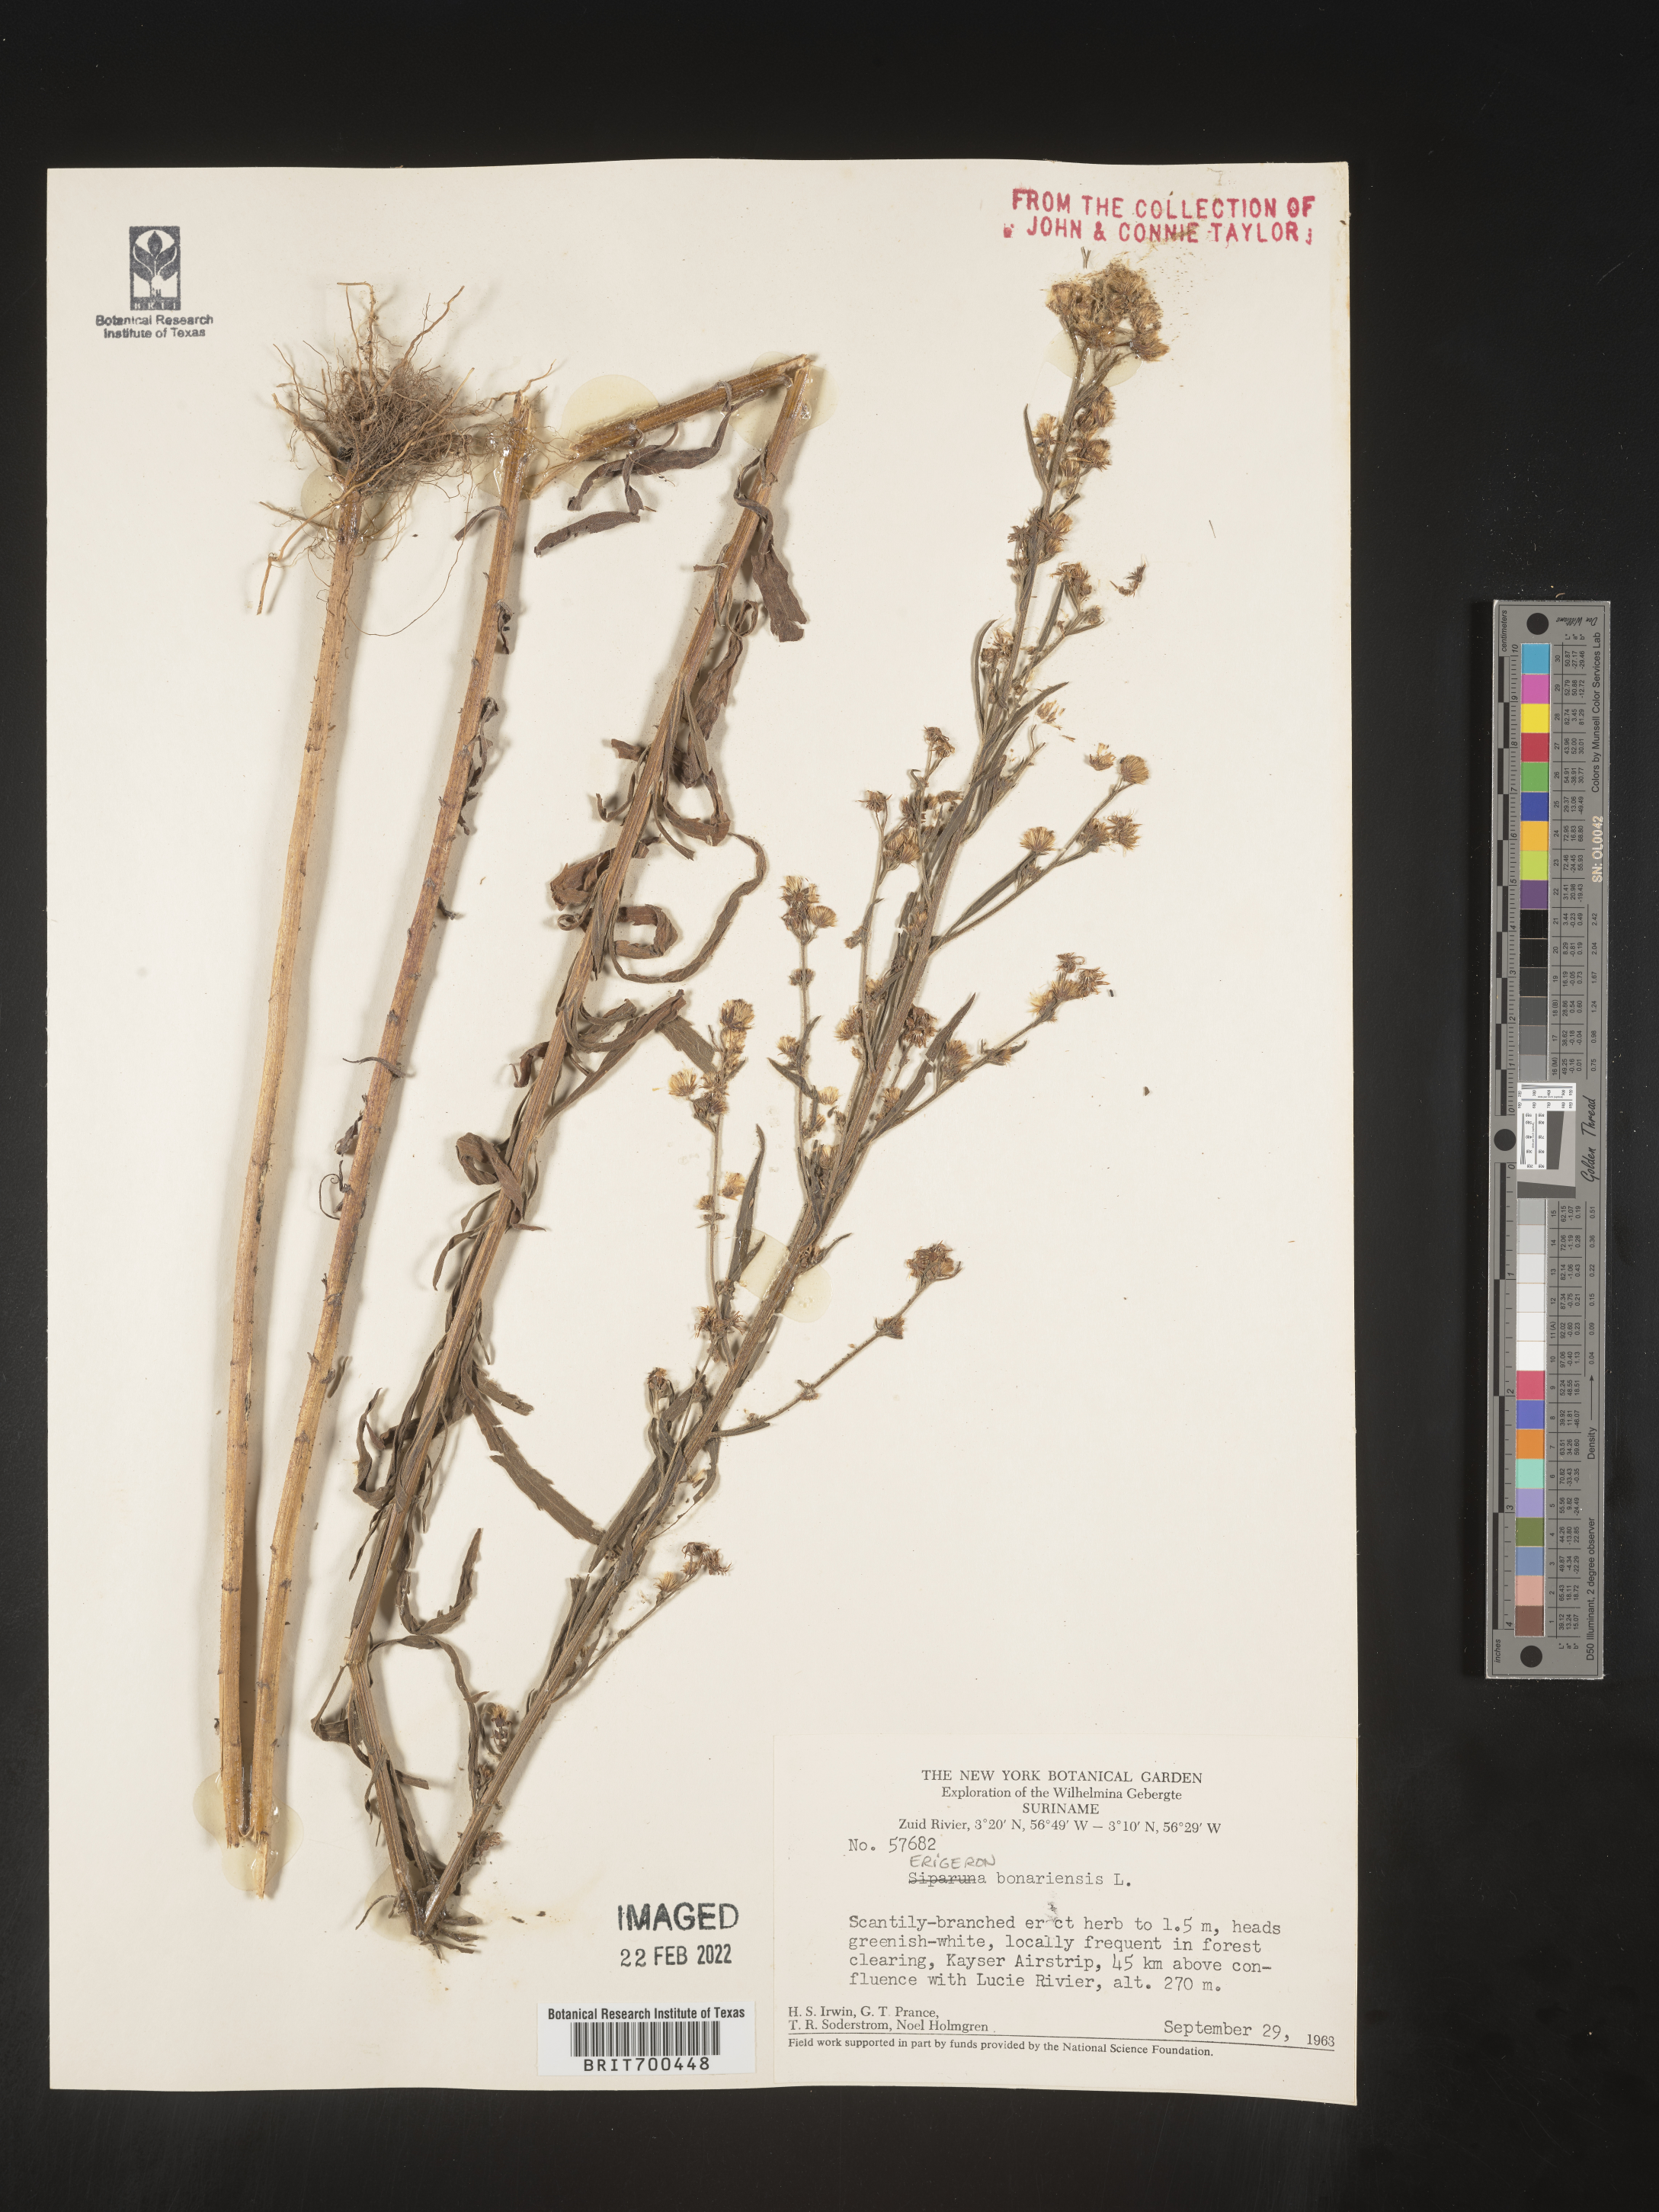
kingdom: Plantae
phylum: Tracheophyta
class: Magnoliopsida
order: Asterales
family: Asteraceae
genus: Erigeron
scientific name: Erigeron
